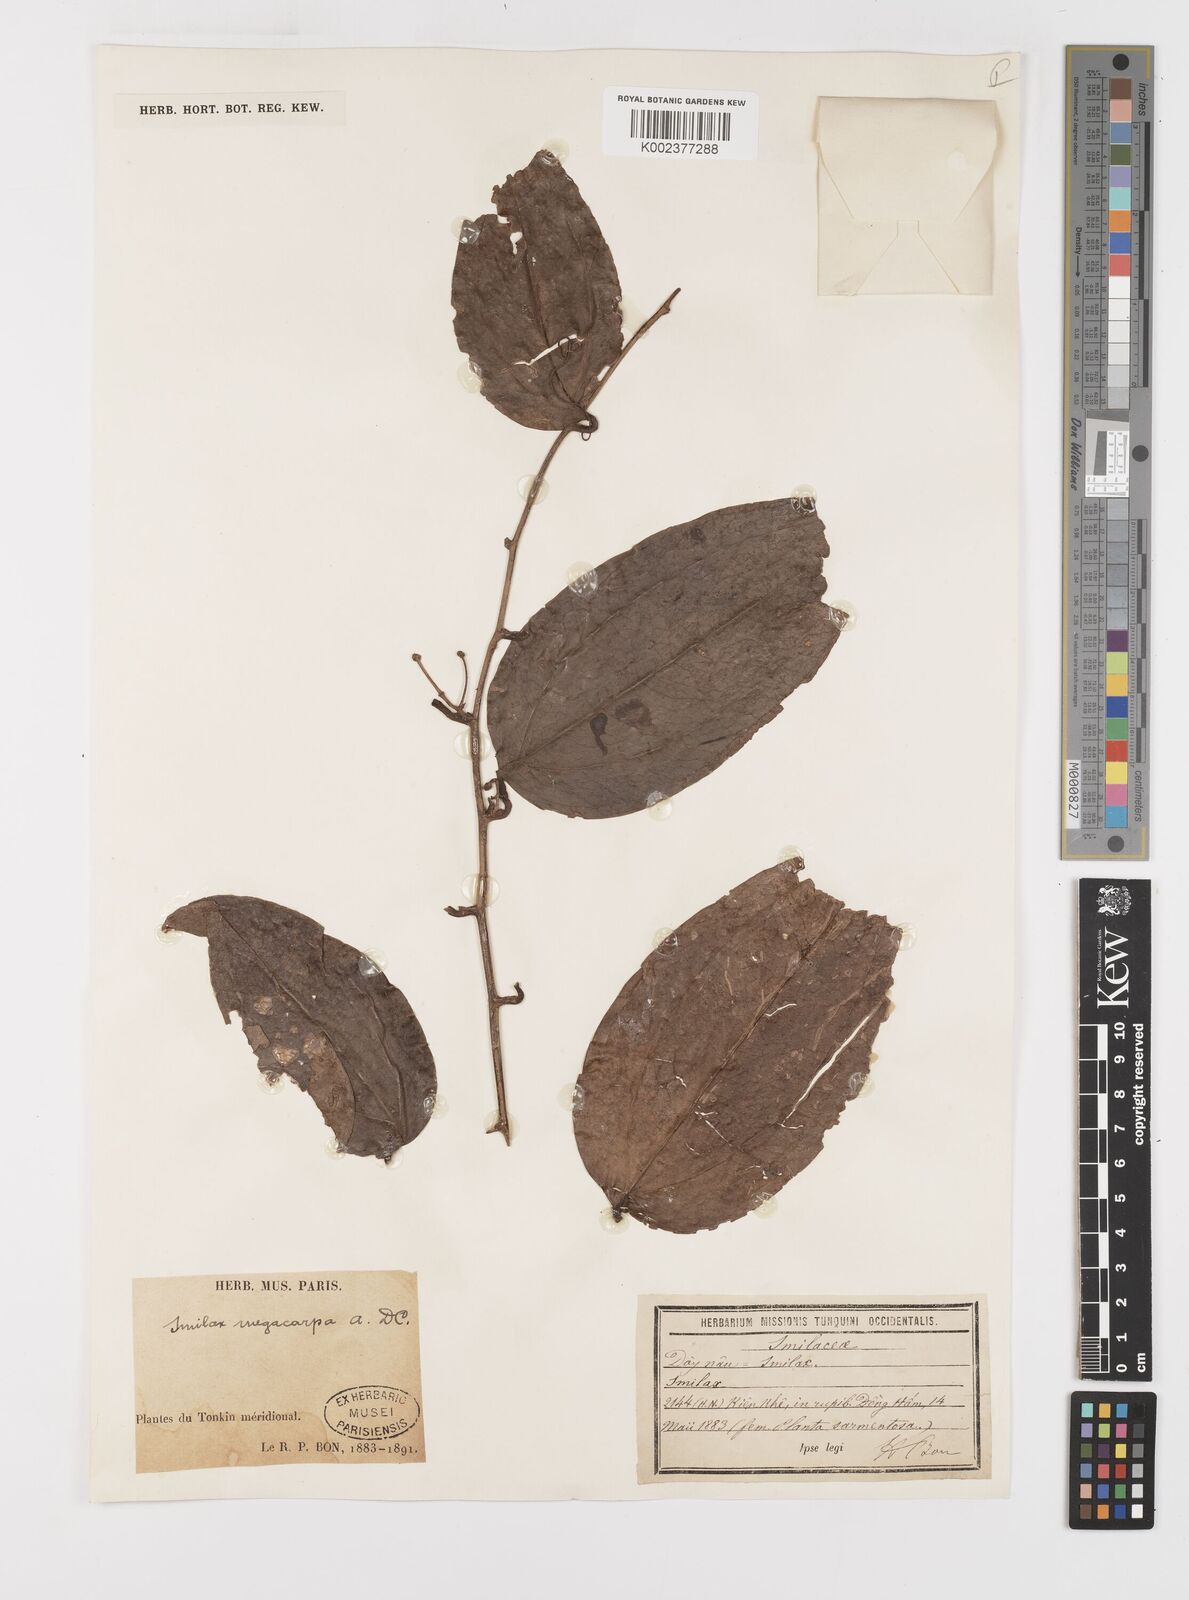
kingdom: Plantae
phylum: Tracheophyta
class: Liliopsida
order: Liliales
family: Smilacaceae
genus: Smilax
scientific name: Smilax megacarpa
